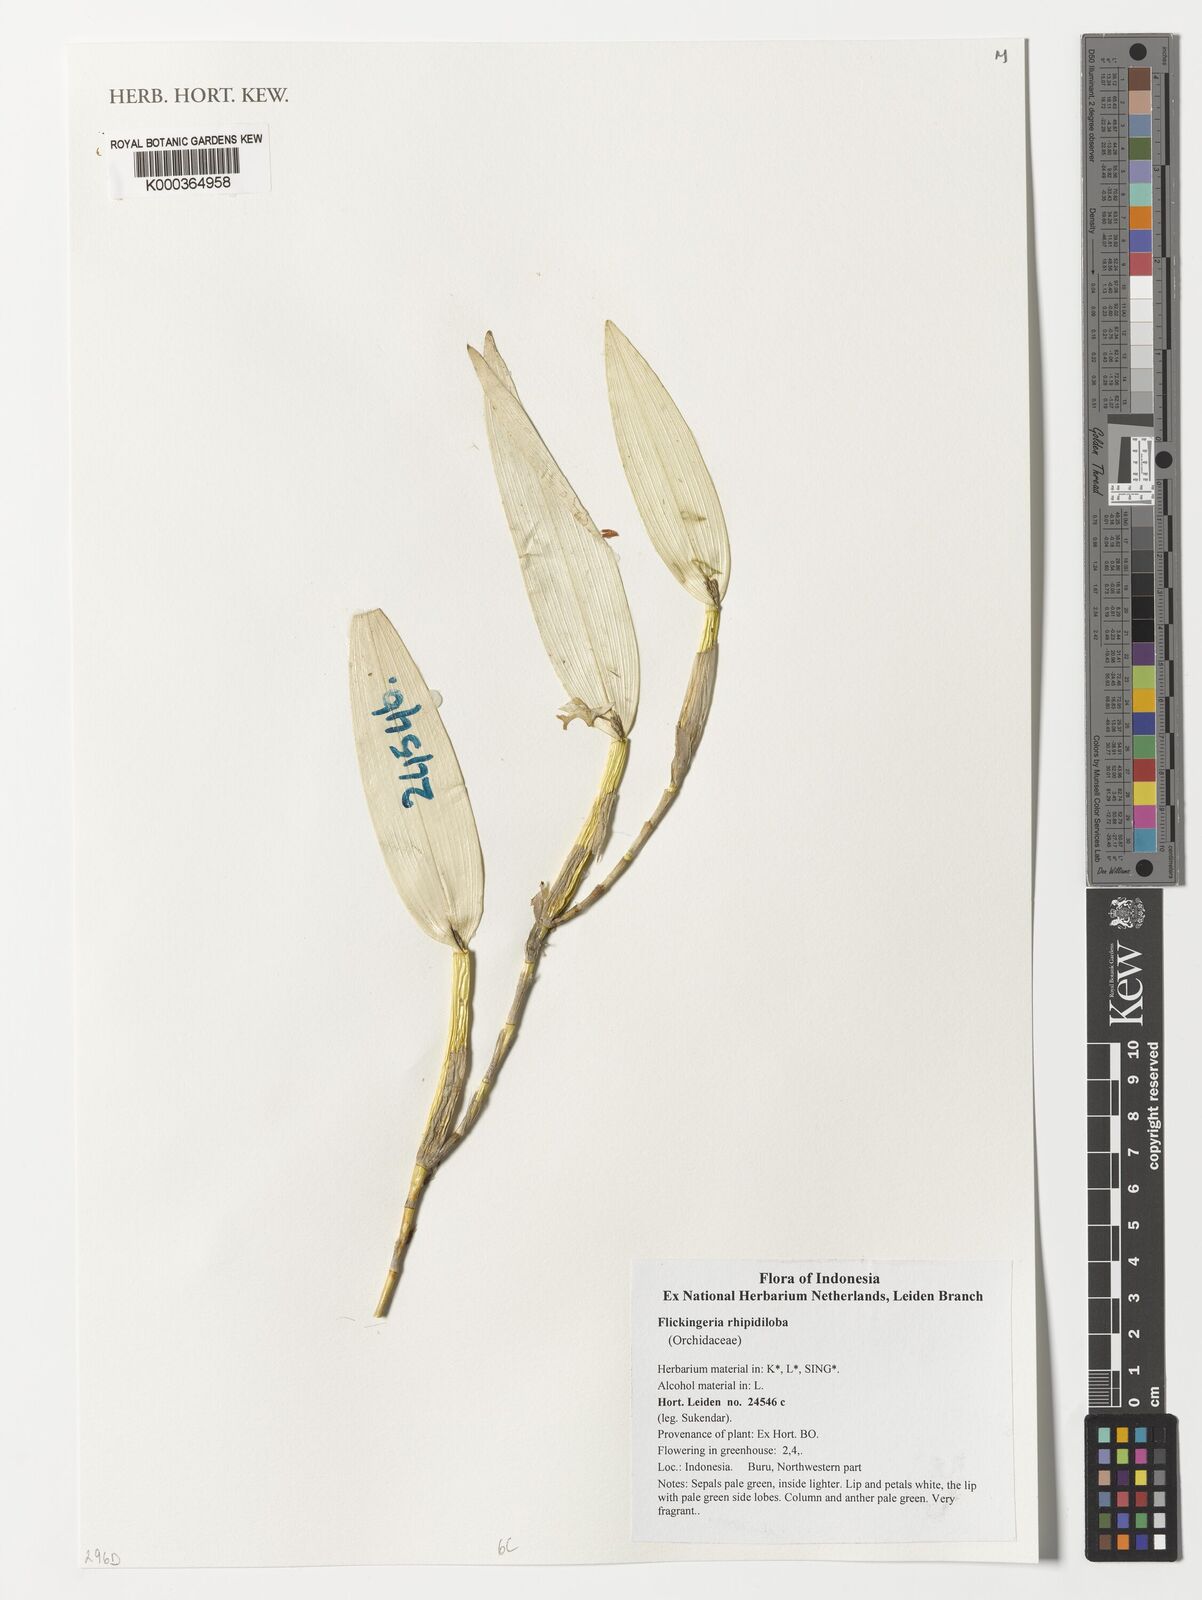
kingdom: Plantae
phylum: Tracheophyta
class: Liliopsida
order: Asparagales
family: Orchidaceae
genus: Dendrobium
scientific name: Dendrobium rhipidolobum
